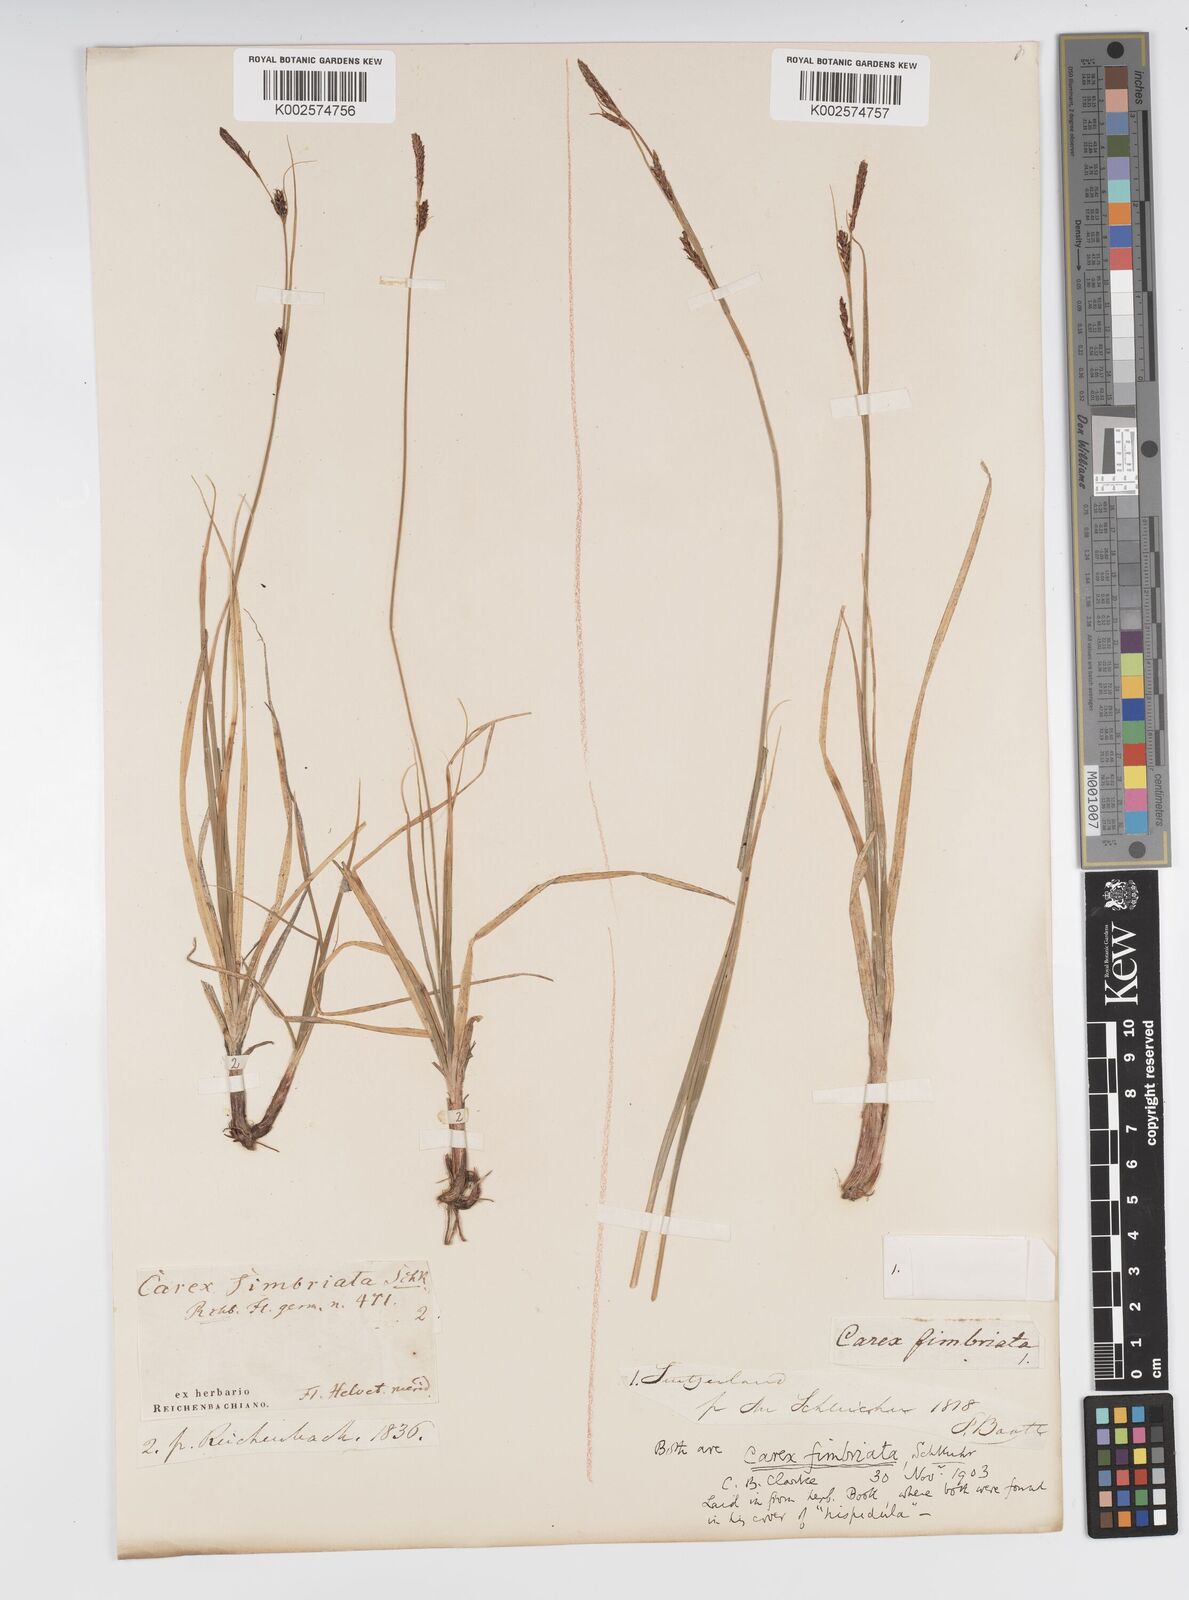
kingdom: Plantae
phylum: Tracheophyta
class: Liliopsida
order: Poales
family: Cyperaceae
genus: Carex
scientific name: Carex fimbriata
